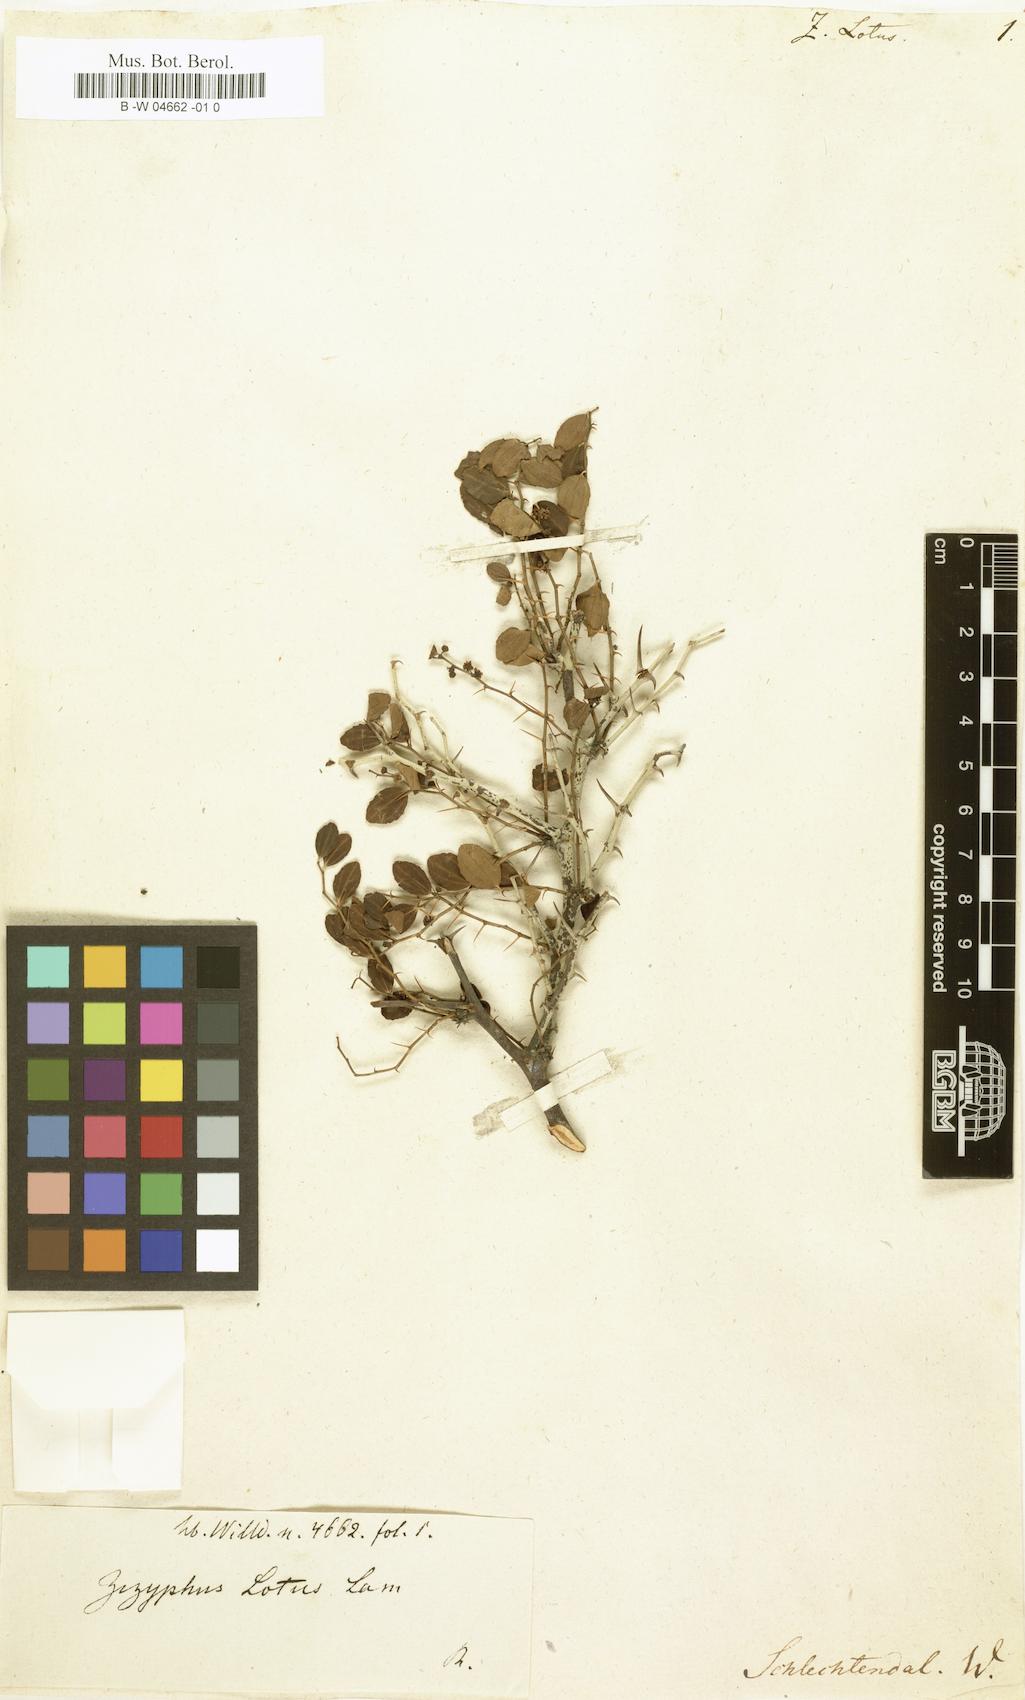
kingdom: Plantae
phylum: Tracheophyta
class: Magnoliopsida
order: Rosales
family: Rhamnaceae
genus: Ziziphus
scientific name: Ziziphus lotus
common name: Lotus
